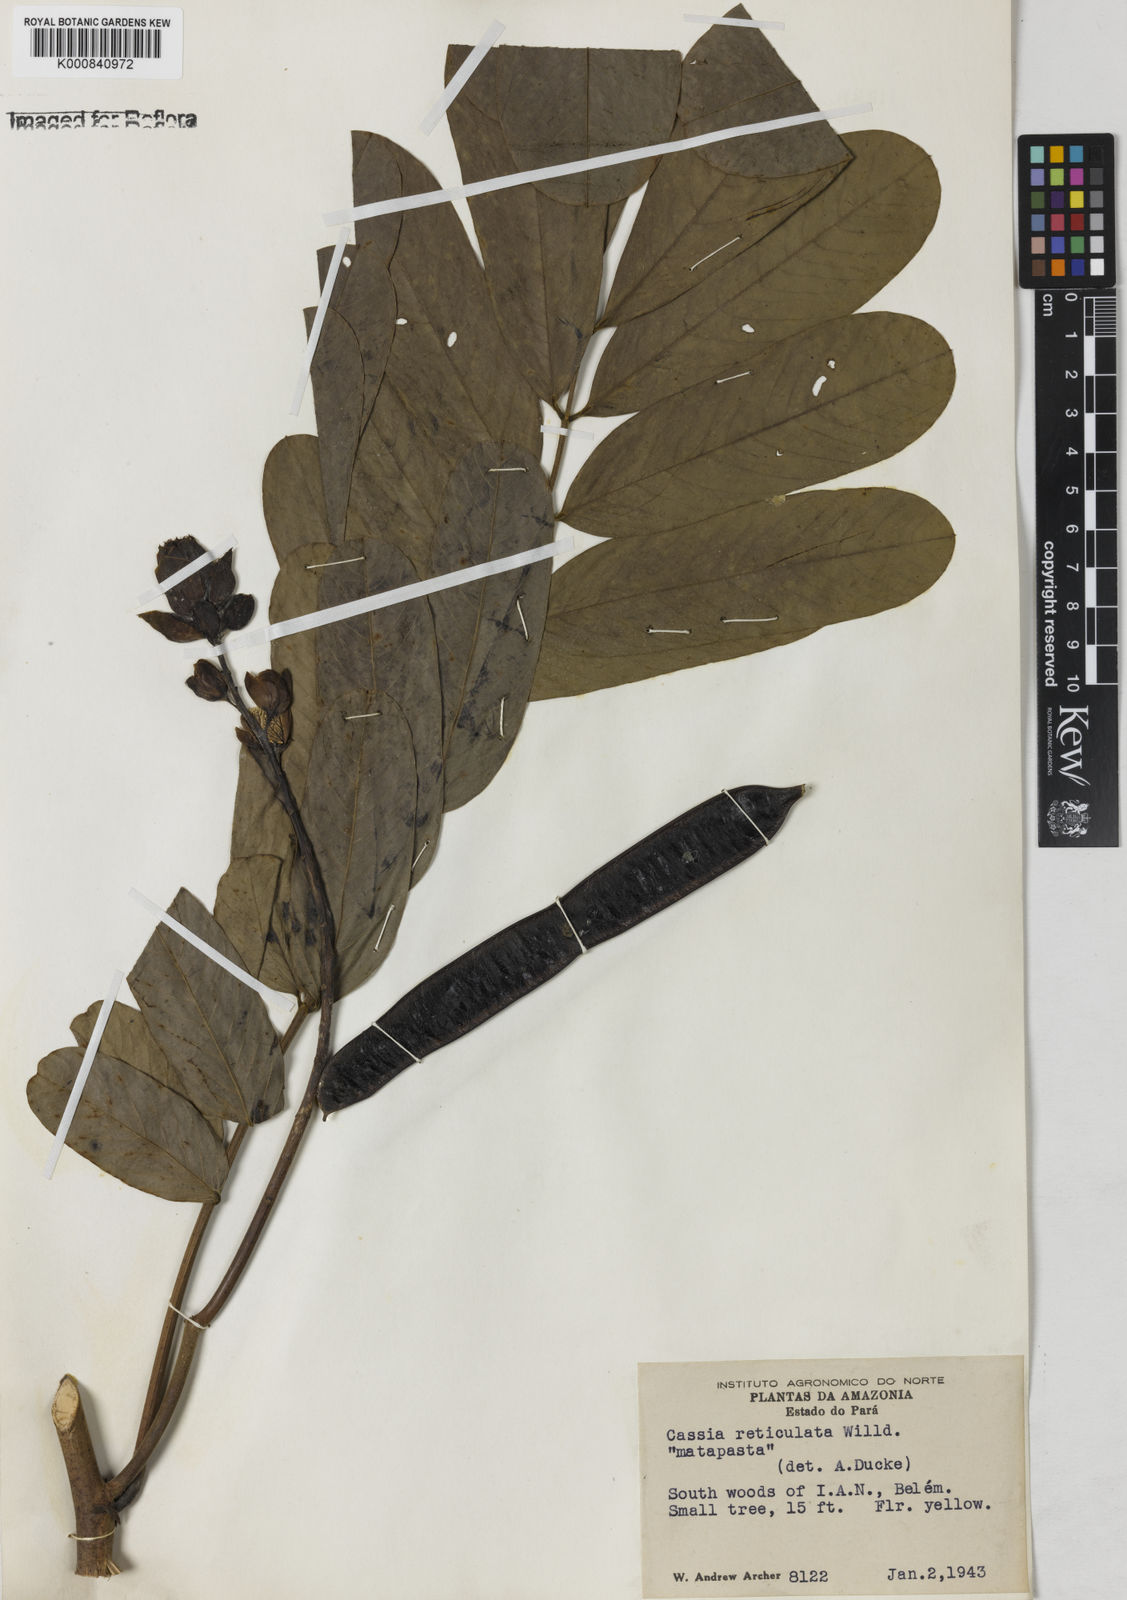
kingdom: Plantae
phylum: Tracheophyta
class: Magnoliopsida
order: Fabales
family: Fabaceae
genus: Senna
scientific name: Senna reticulata
